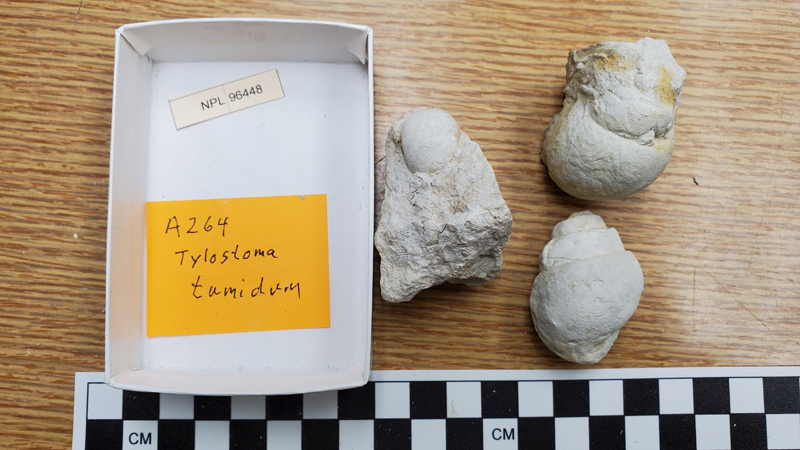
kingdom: Animalia
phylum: Mollusca
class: Gastropoda
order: Littorinimorpha
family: Tylostomatidae
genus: Tylostoma
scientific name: Tylostoma
